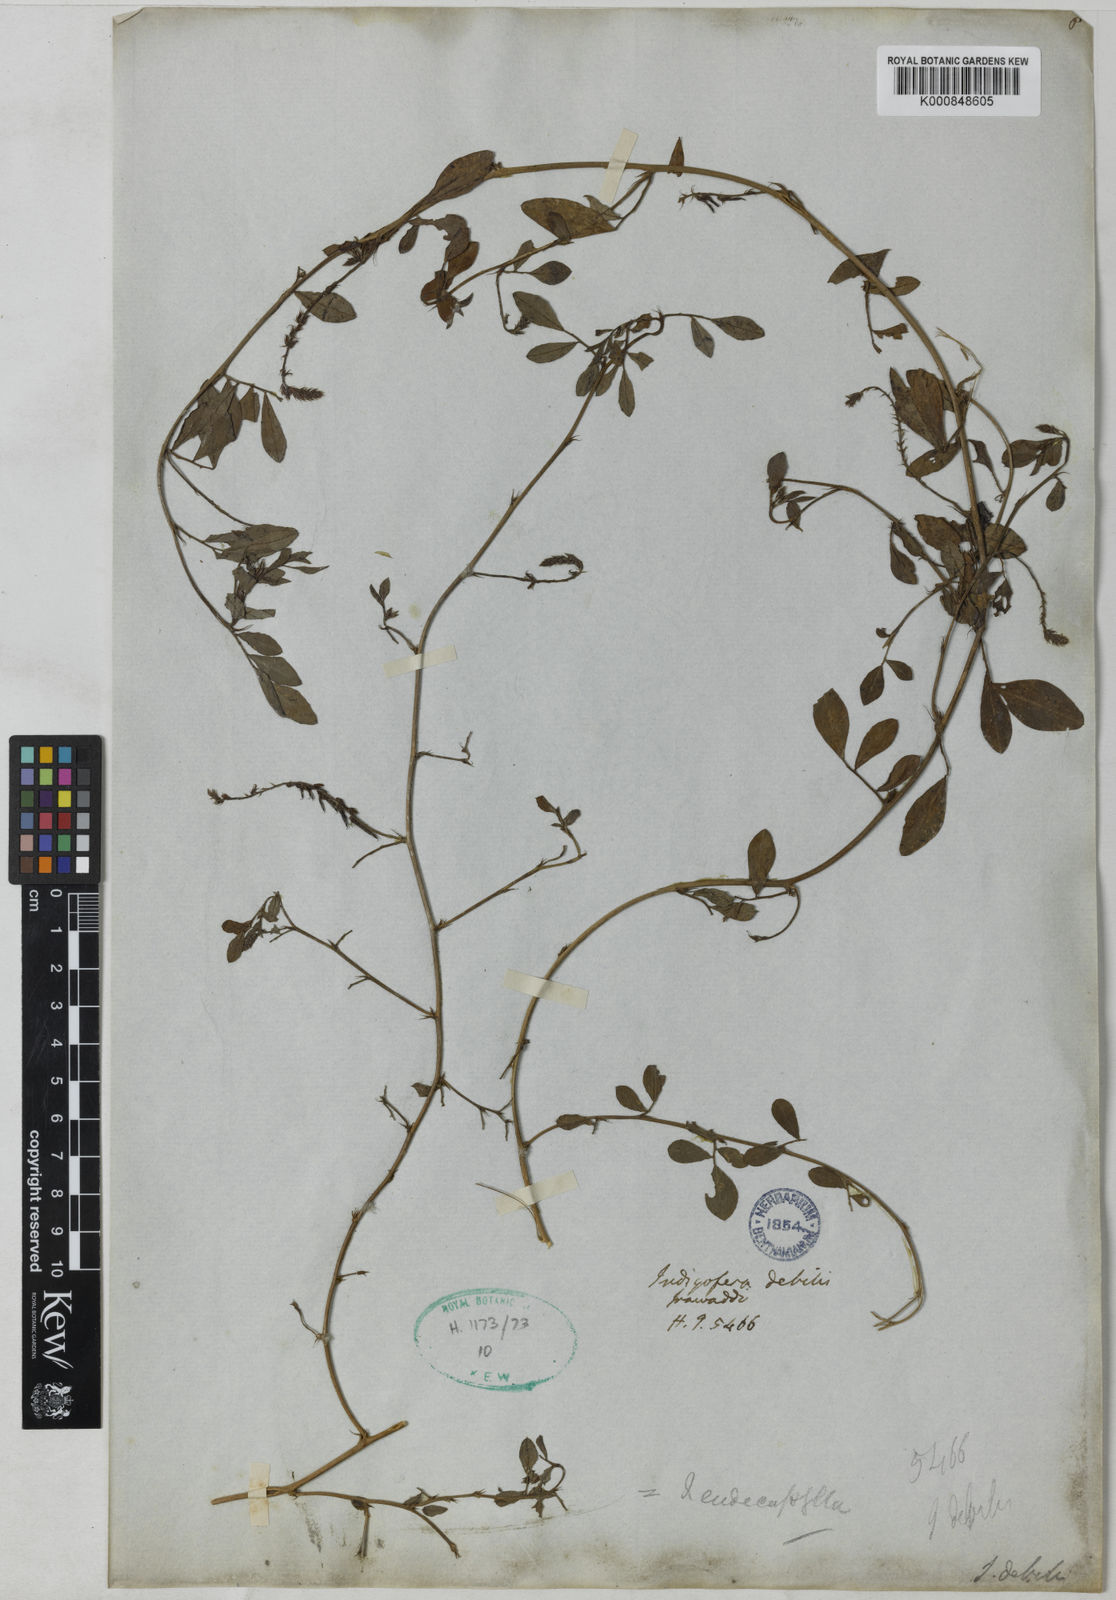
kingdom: Plantae
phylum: Tracheophyta
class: Magnoliopsida
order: Fabales
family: Fabaceae
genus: Indigofera
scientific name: Indigofera
